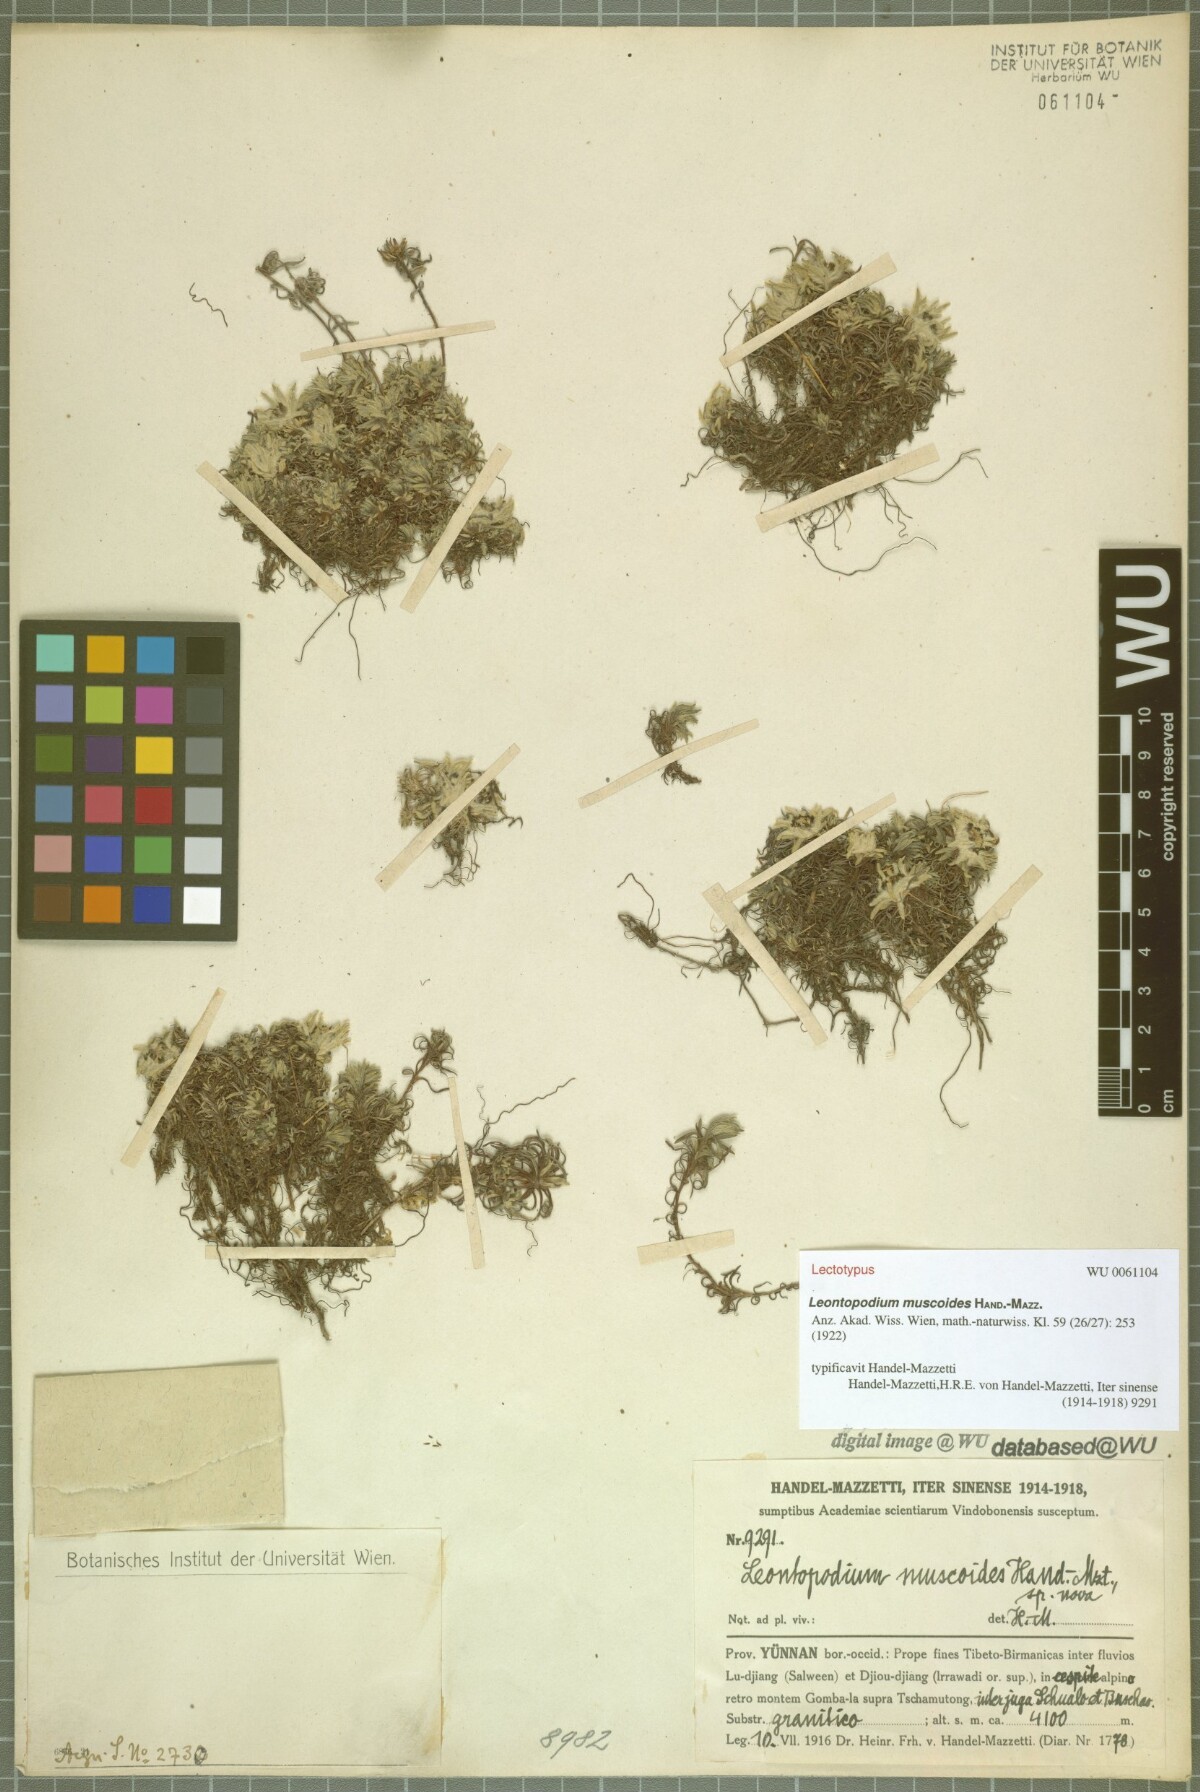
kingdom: Plantae
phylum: Tracheophyta
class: Magnoliopsida
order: Asterales
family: Asteraceae
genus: Leontopodium
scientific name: Leontopodium muscoides
